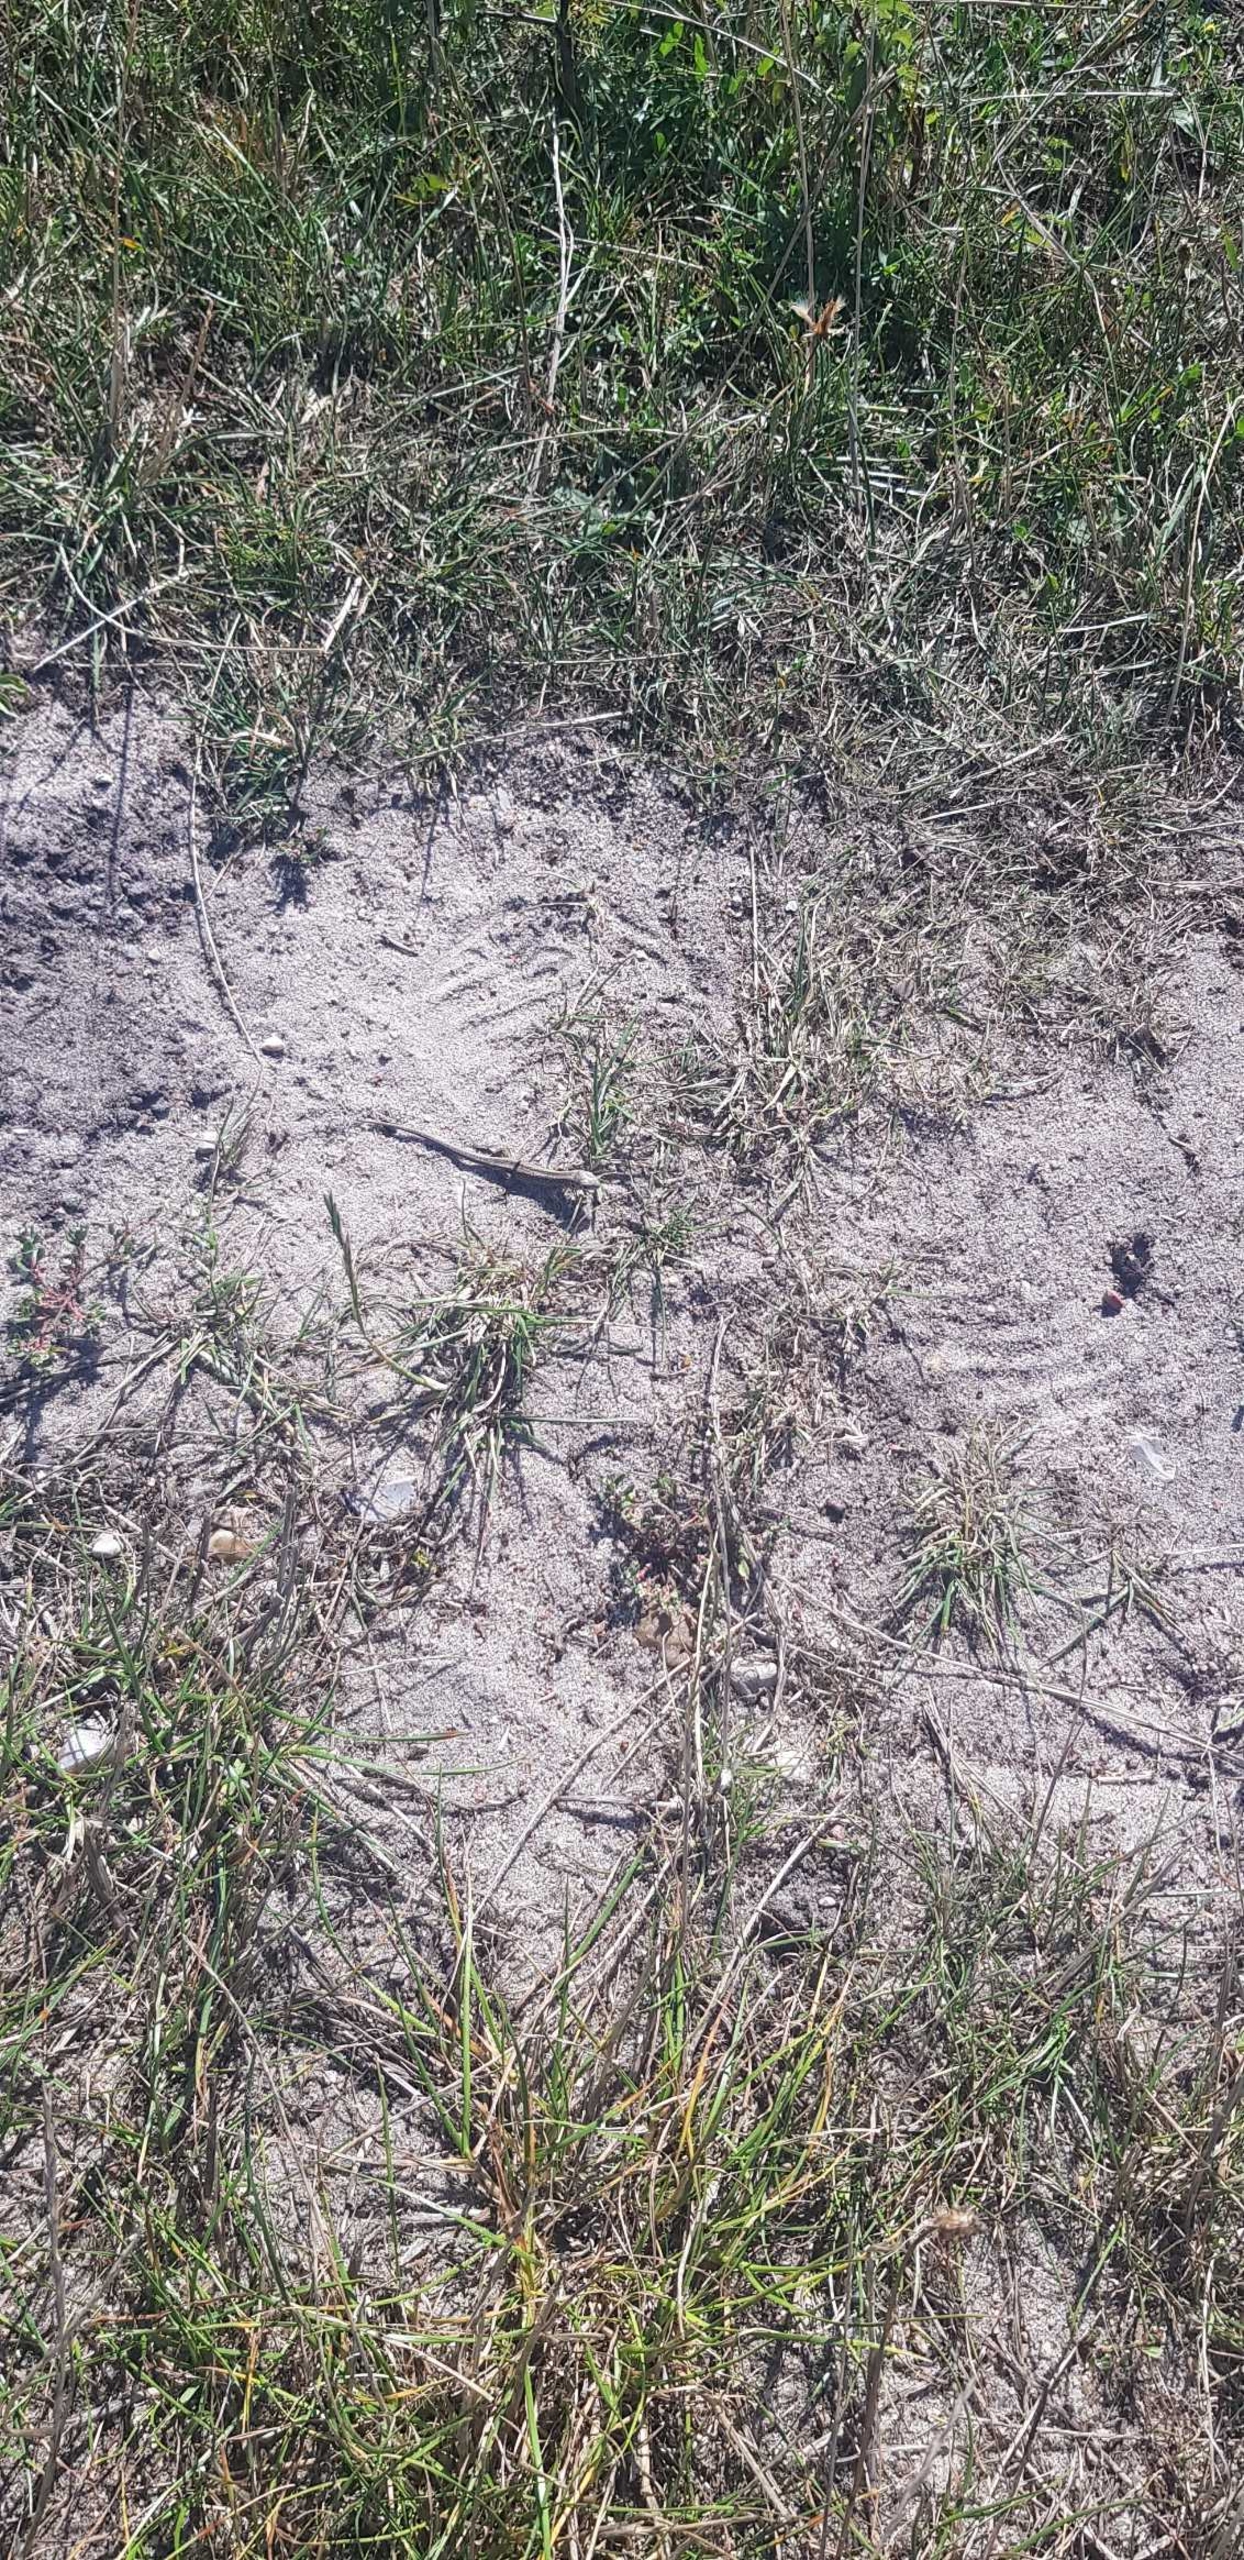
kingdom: Animalia
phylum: Chordata
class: Squamata
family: Lacertidae
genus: Lacerta
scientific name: Lacerta agilis
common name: Markfirben
